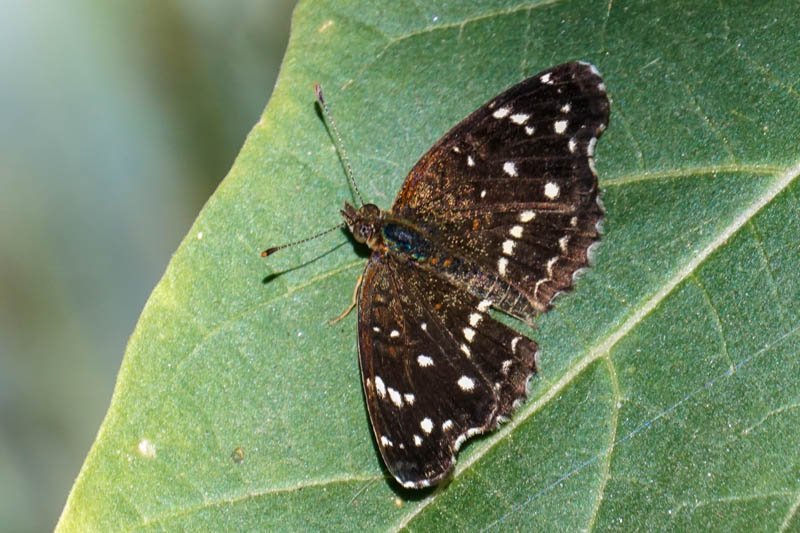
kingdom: Animalia
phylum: Arthropoda
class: Insecta
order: Lepidoptera
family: Nymphalidae
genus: Anthanassa
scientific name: Anthanassa texana
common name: Texan Crescent
